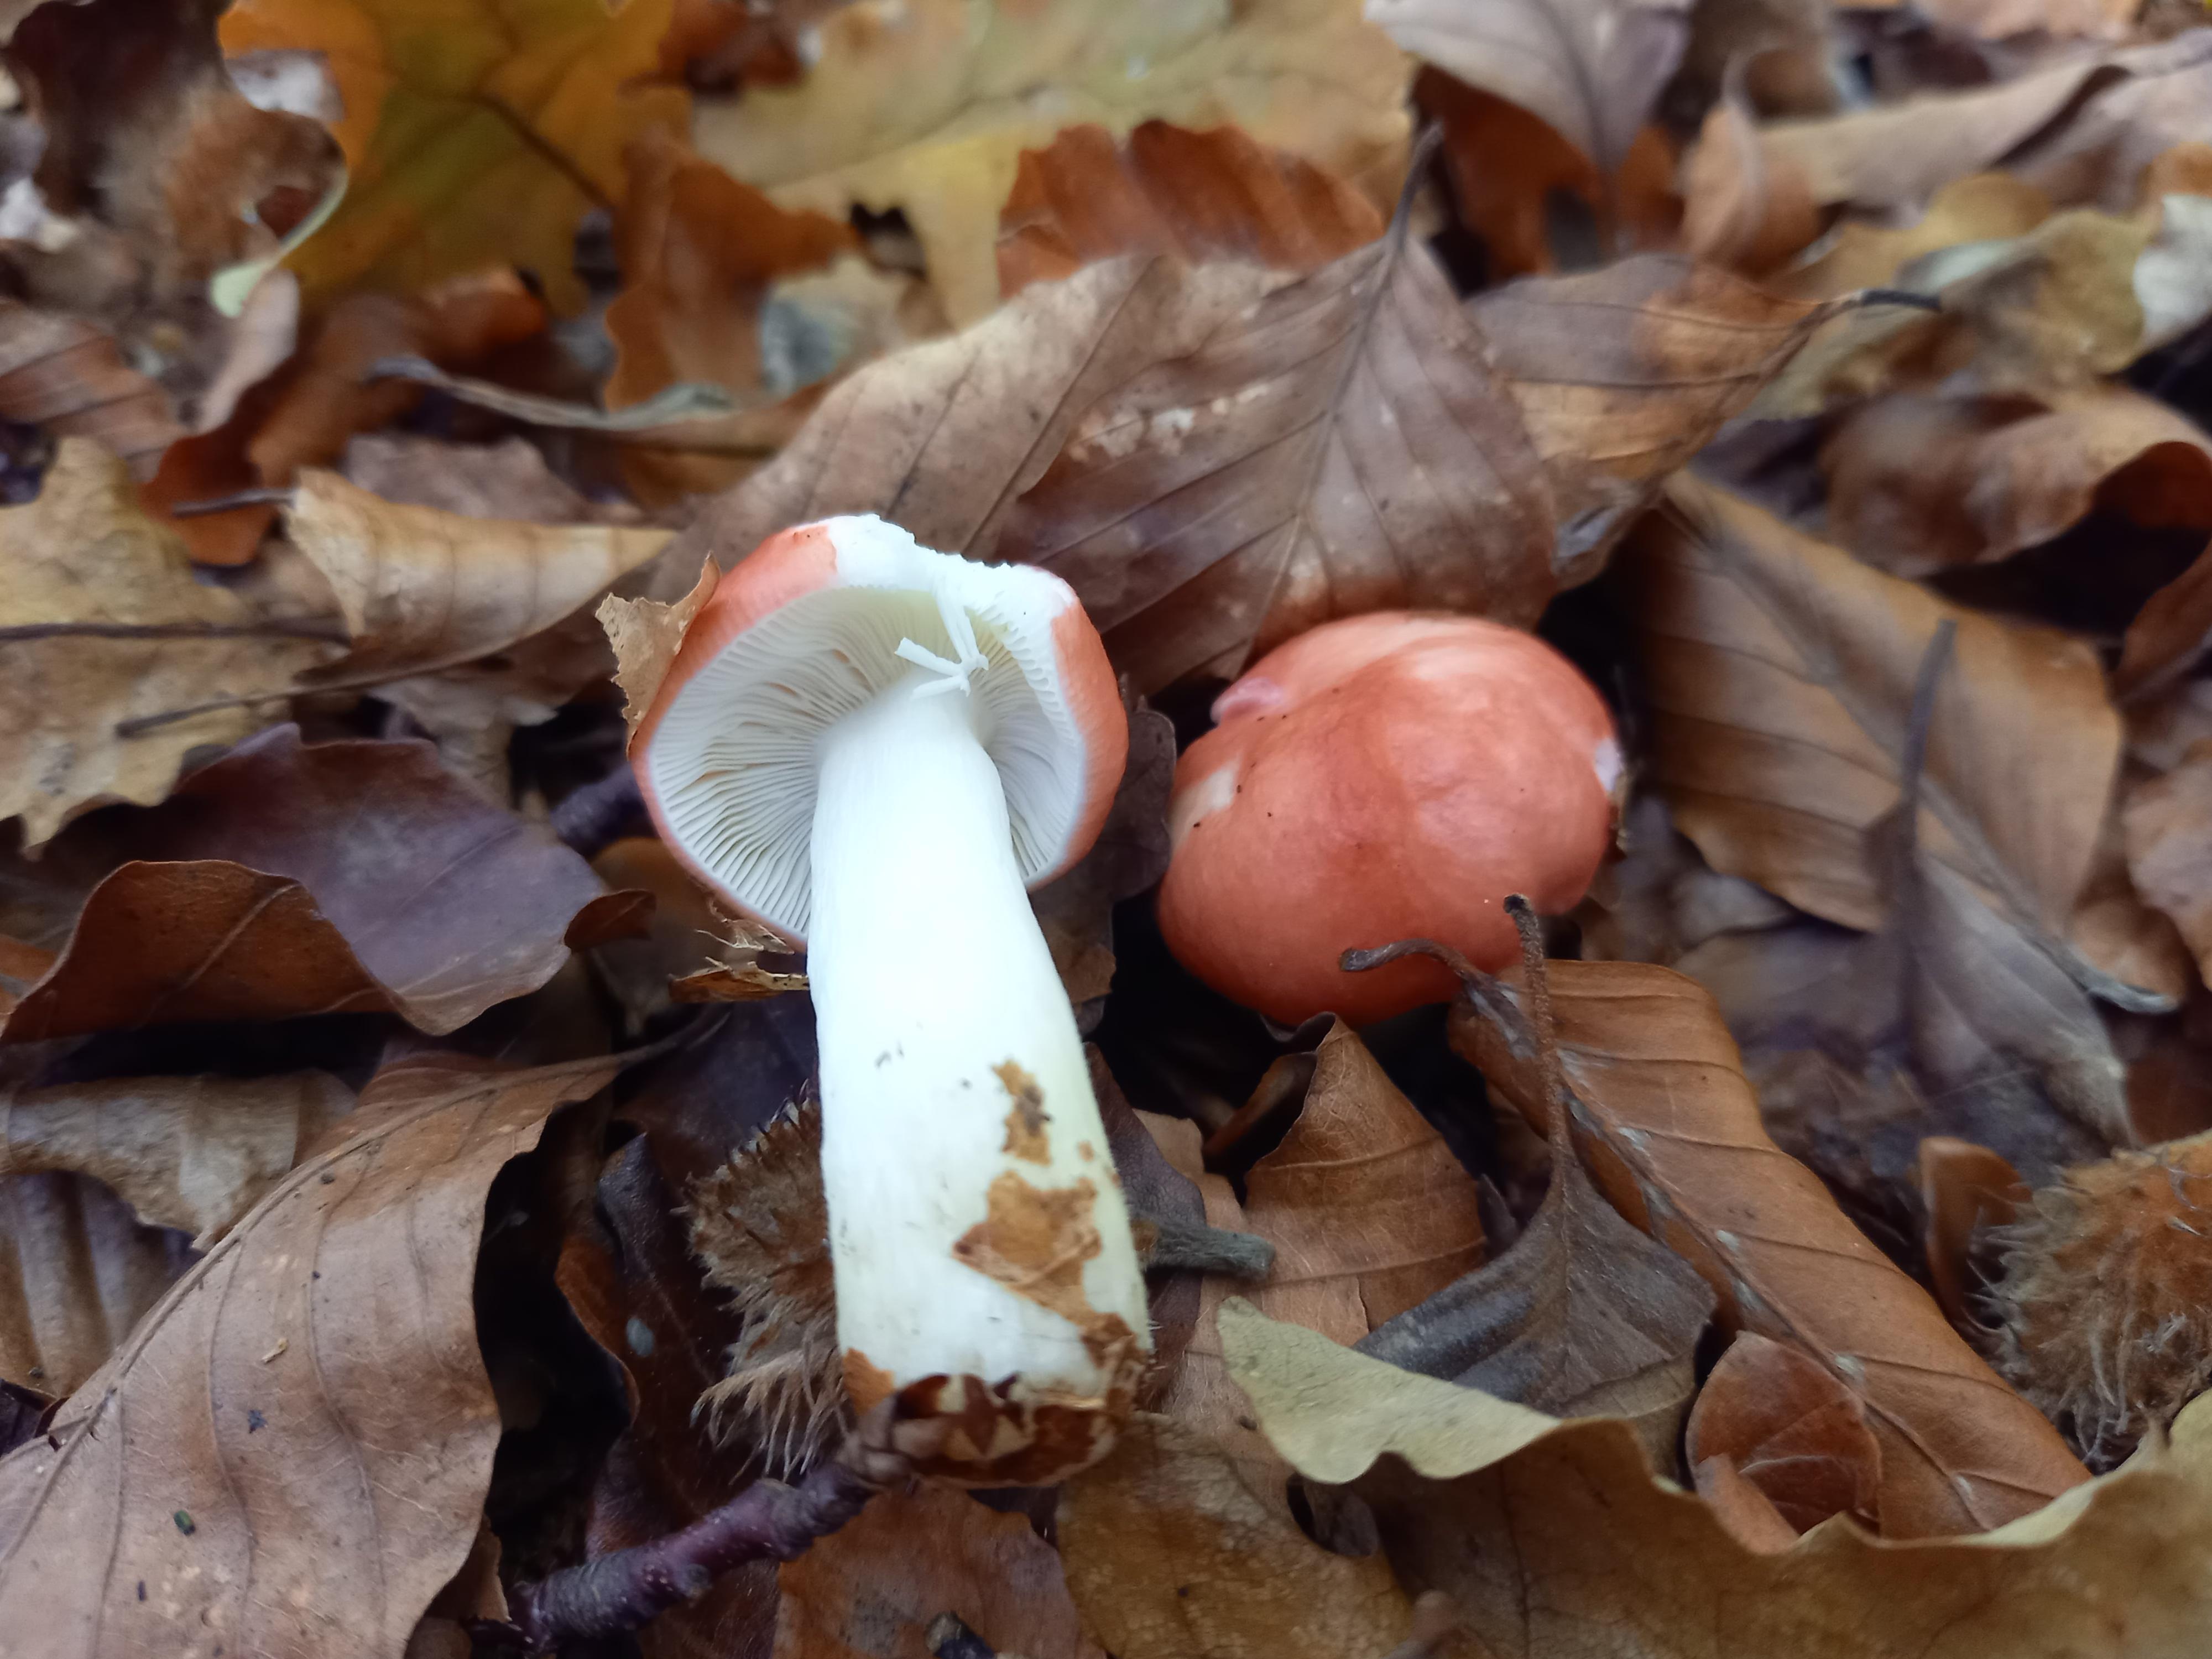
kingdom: Fungi
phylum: Basidiomycota
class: Agaricomycetes
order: Russulales
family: Russulaceae
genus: Russula
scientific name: Russula nobilis
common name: lille gift-skørhat
